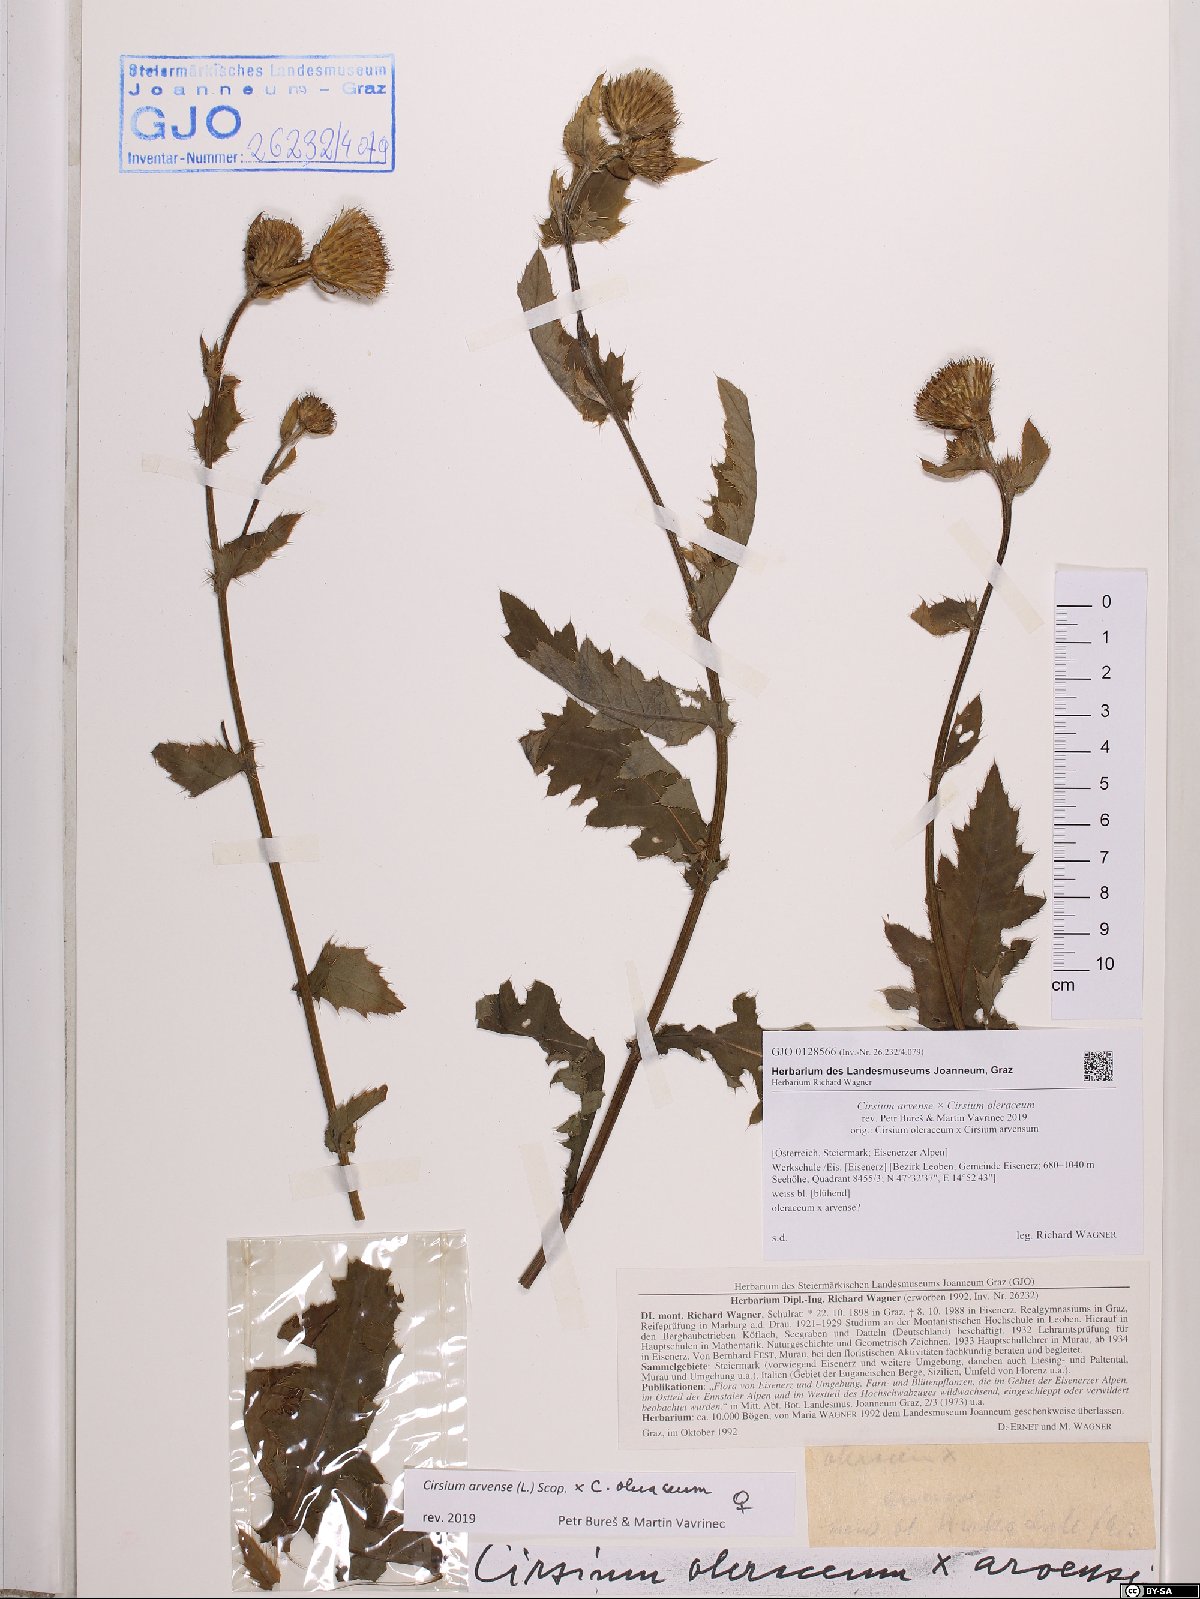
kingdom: Plantae
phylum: Tracheophyta
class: Magnoliopsida
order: Asterales
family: Asteraceae
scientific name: Asteraceae
